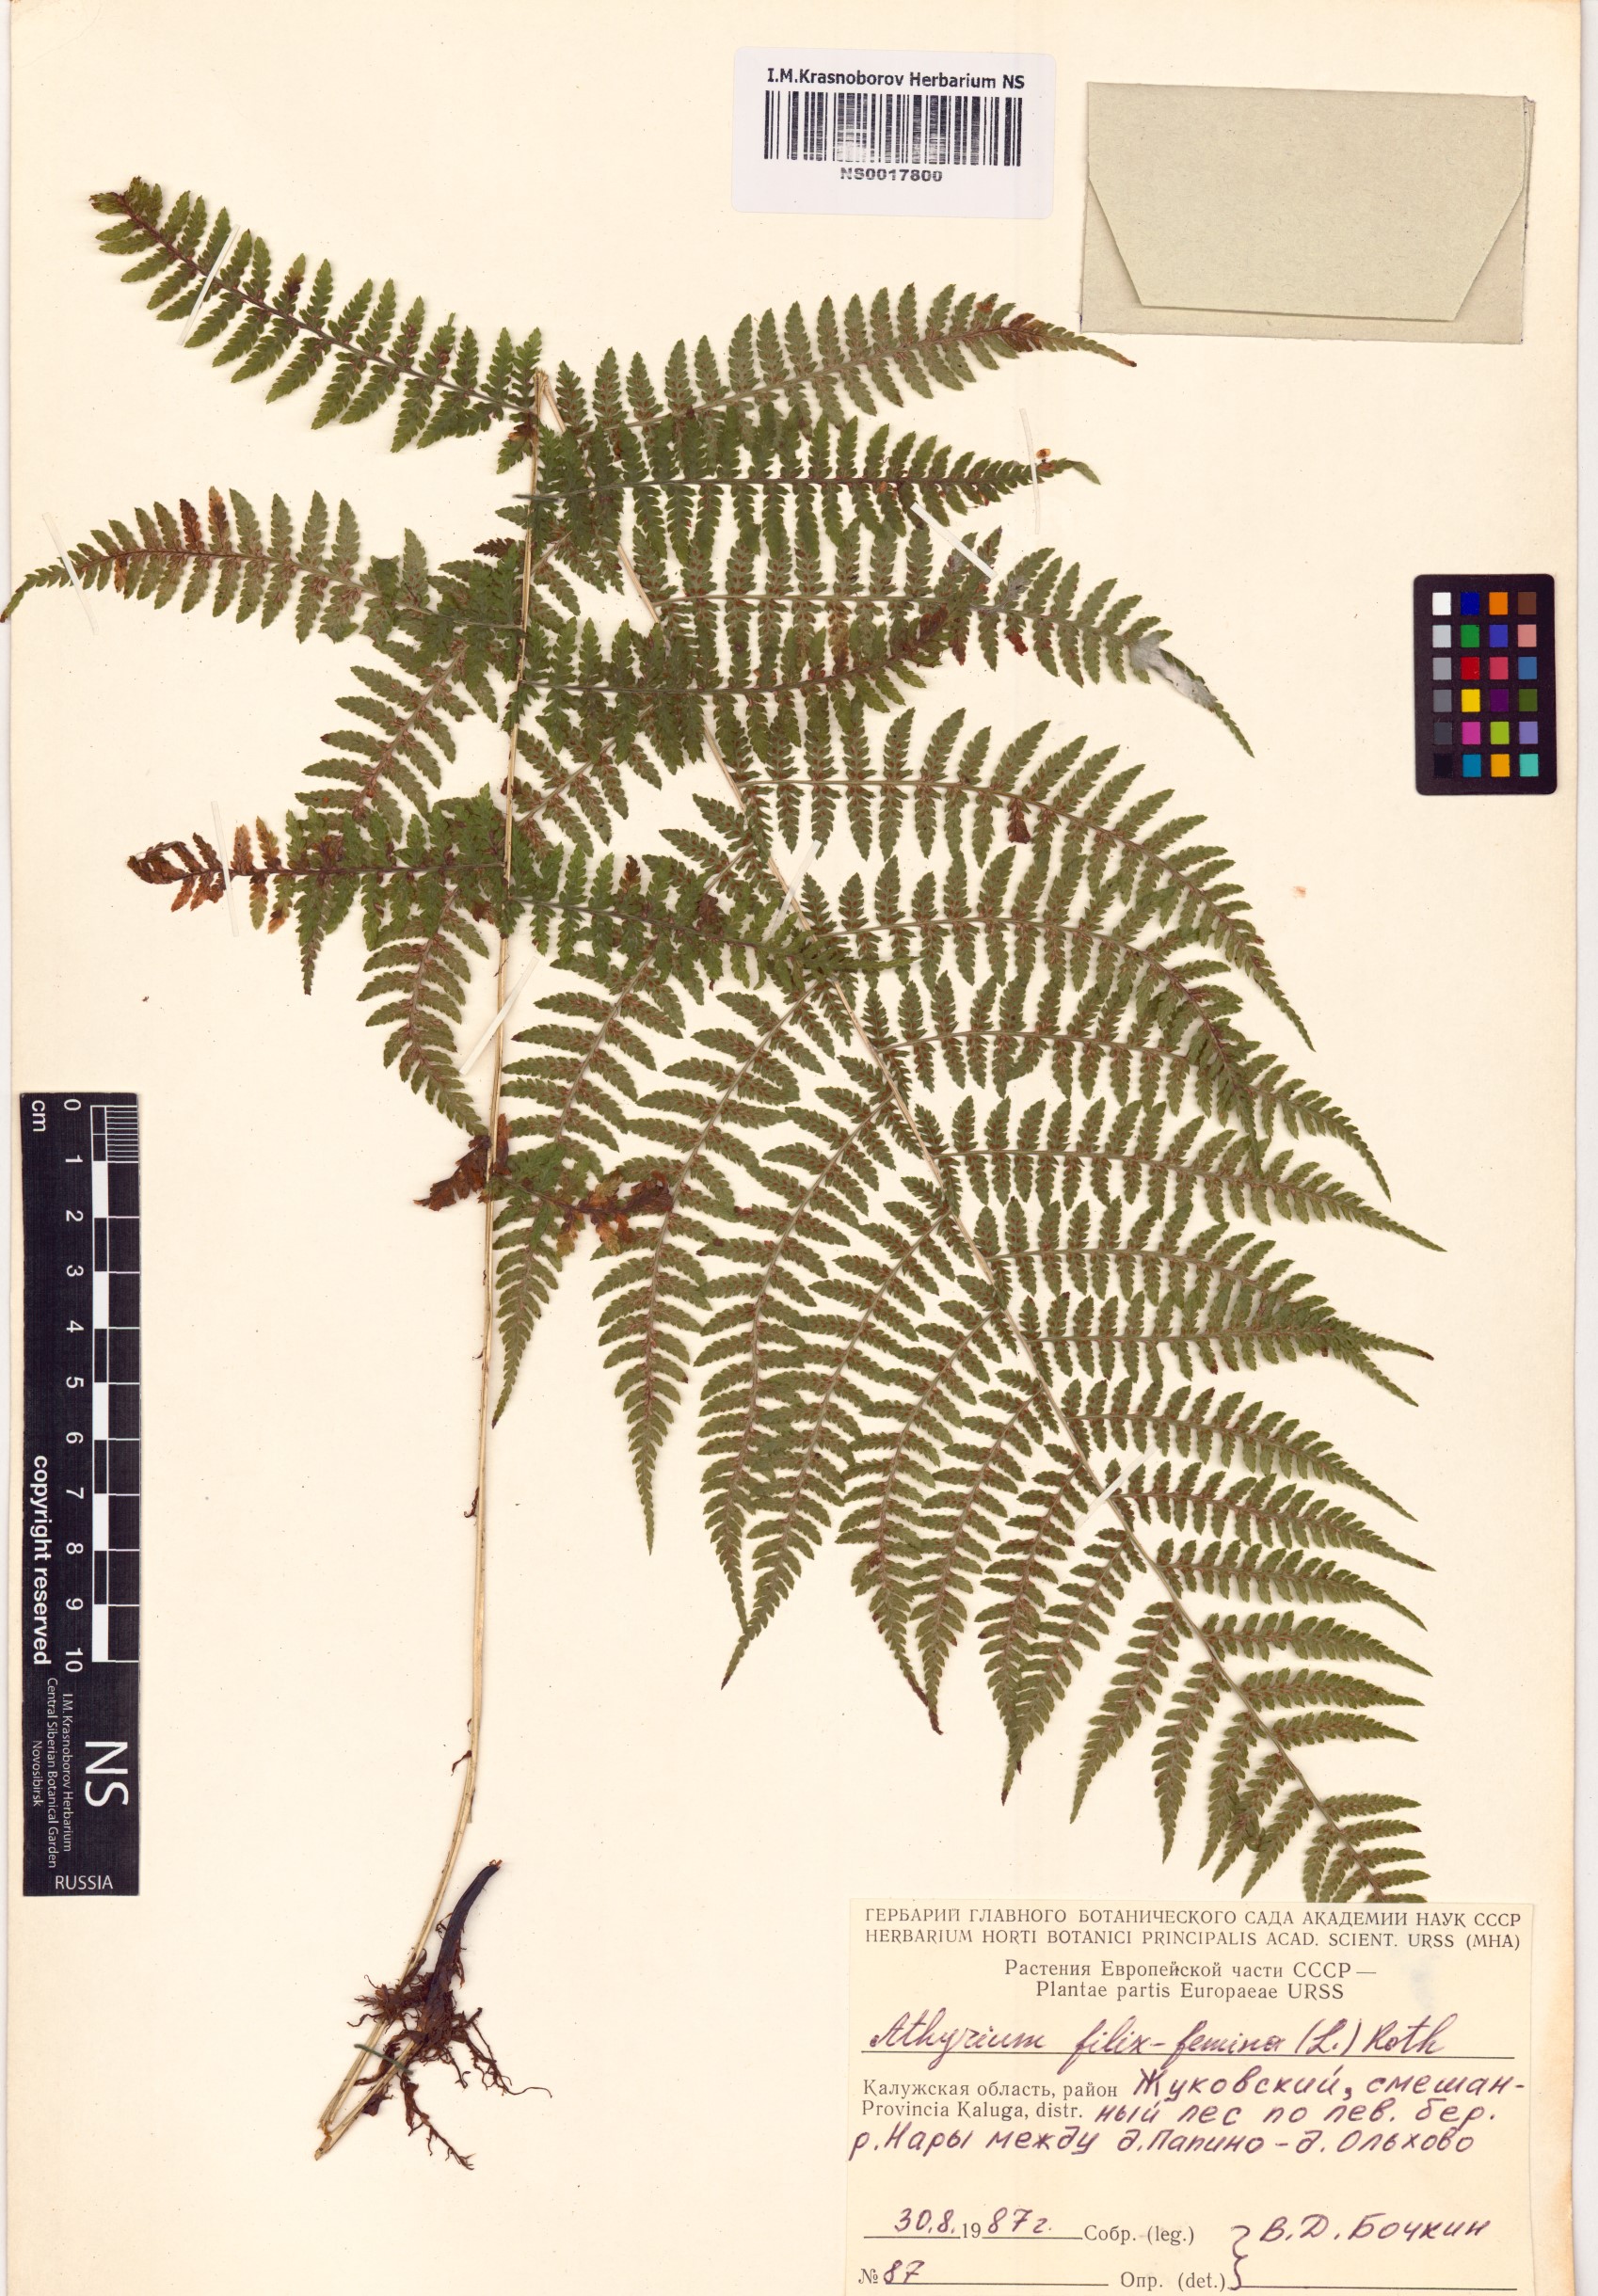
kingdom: Plantae
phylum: Tracheophyta
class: Polypodiopsida
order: Polypodiales
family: Athyriaceae
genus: Athyrium
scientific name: Athyrium filix-femina
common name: Lady fern
